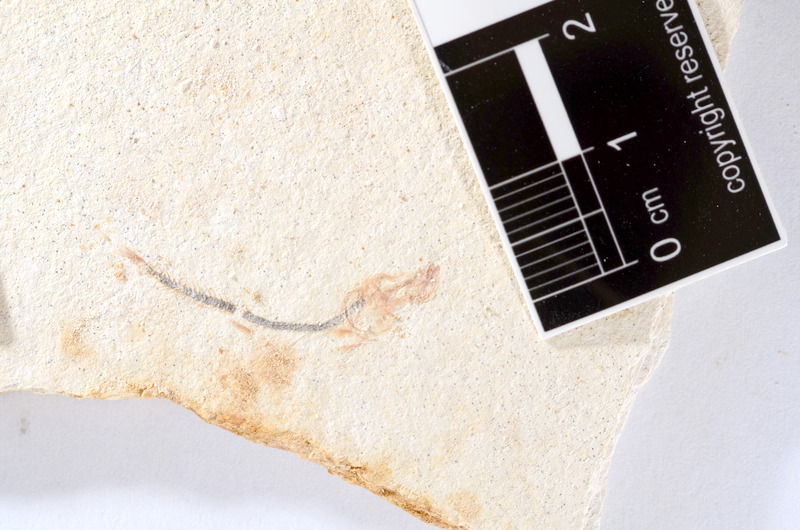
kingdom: Animalia
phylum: Chordata
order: Salmoniformes
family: Orthogonikleithridae
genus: Orthogonikleithrus
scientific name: Orthogonikleithrus hoelli
